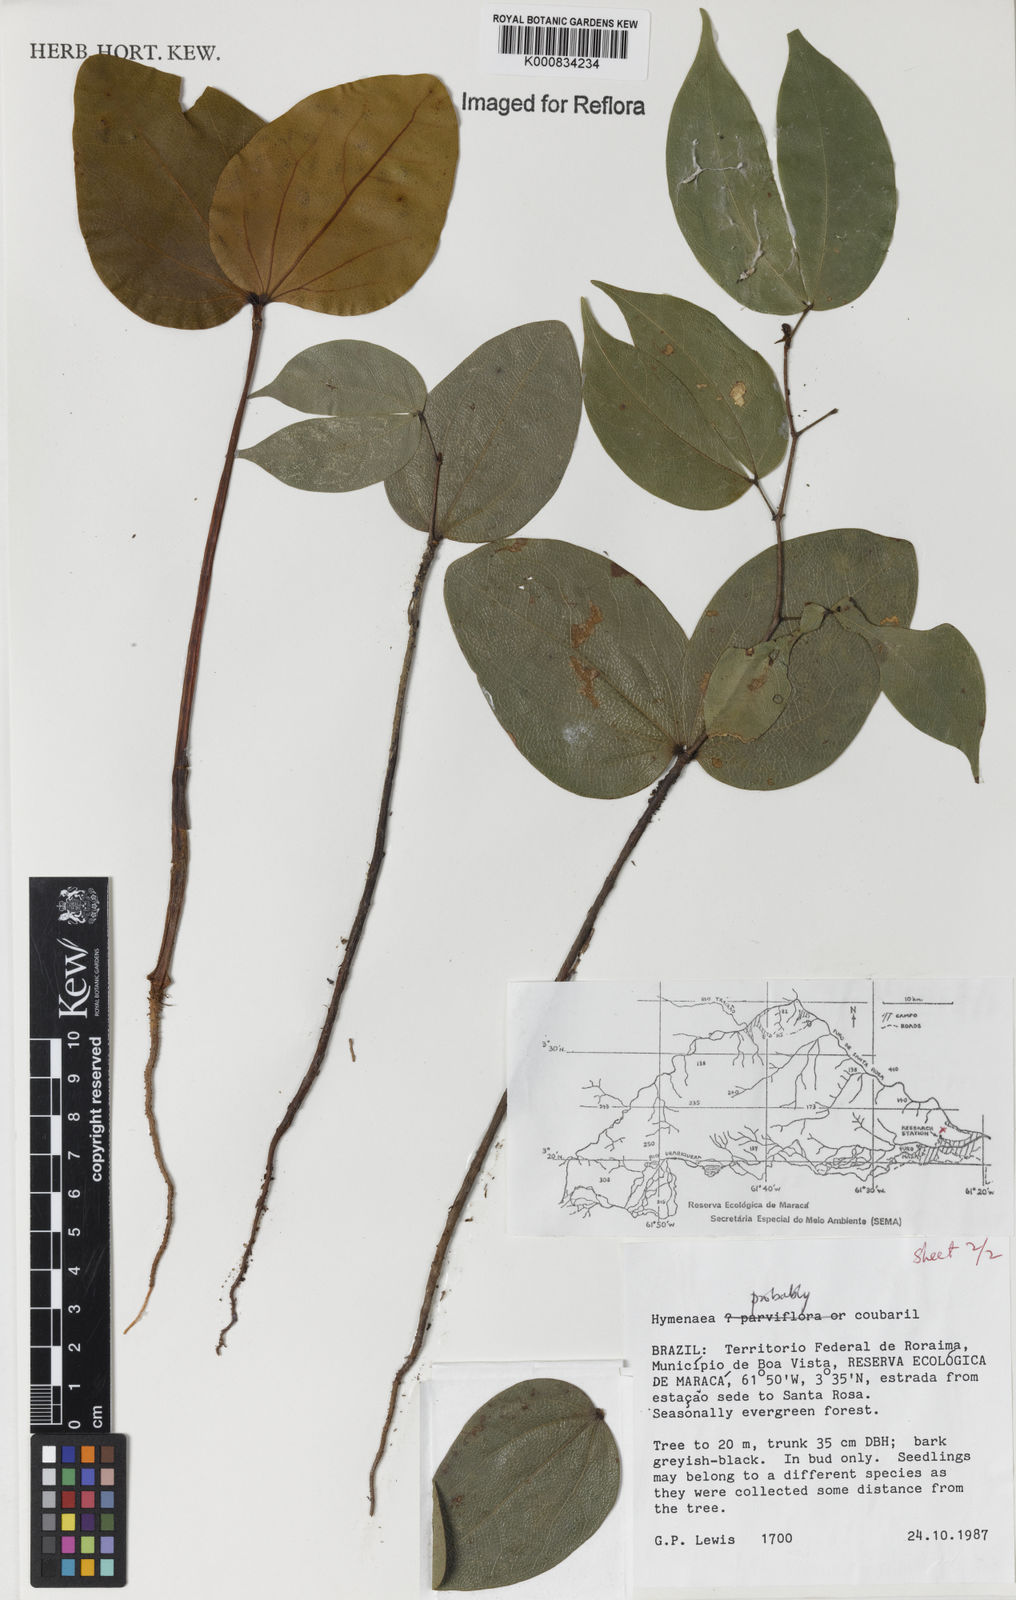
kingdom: Plantae
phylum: Tracheophyta
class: Magnoliopsida
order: Fabales
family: Fabaceae
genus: Hymenaea
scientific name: Hymenaea courbaril
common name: Brazilian copal
